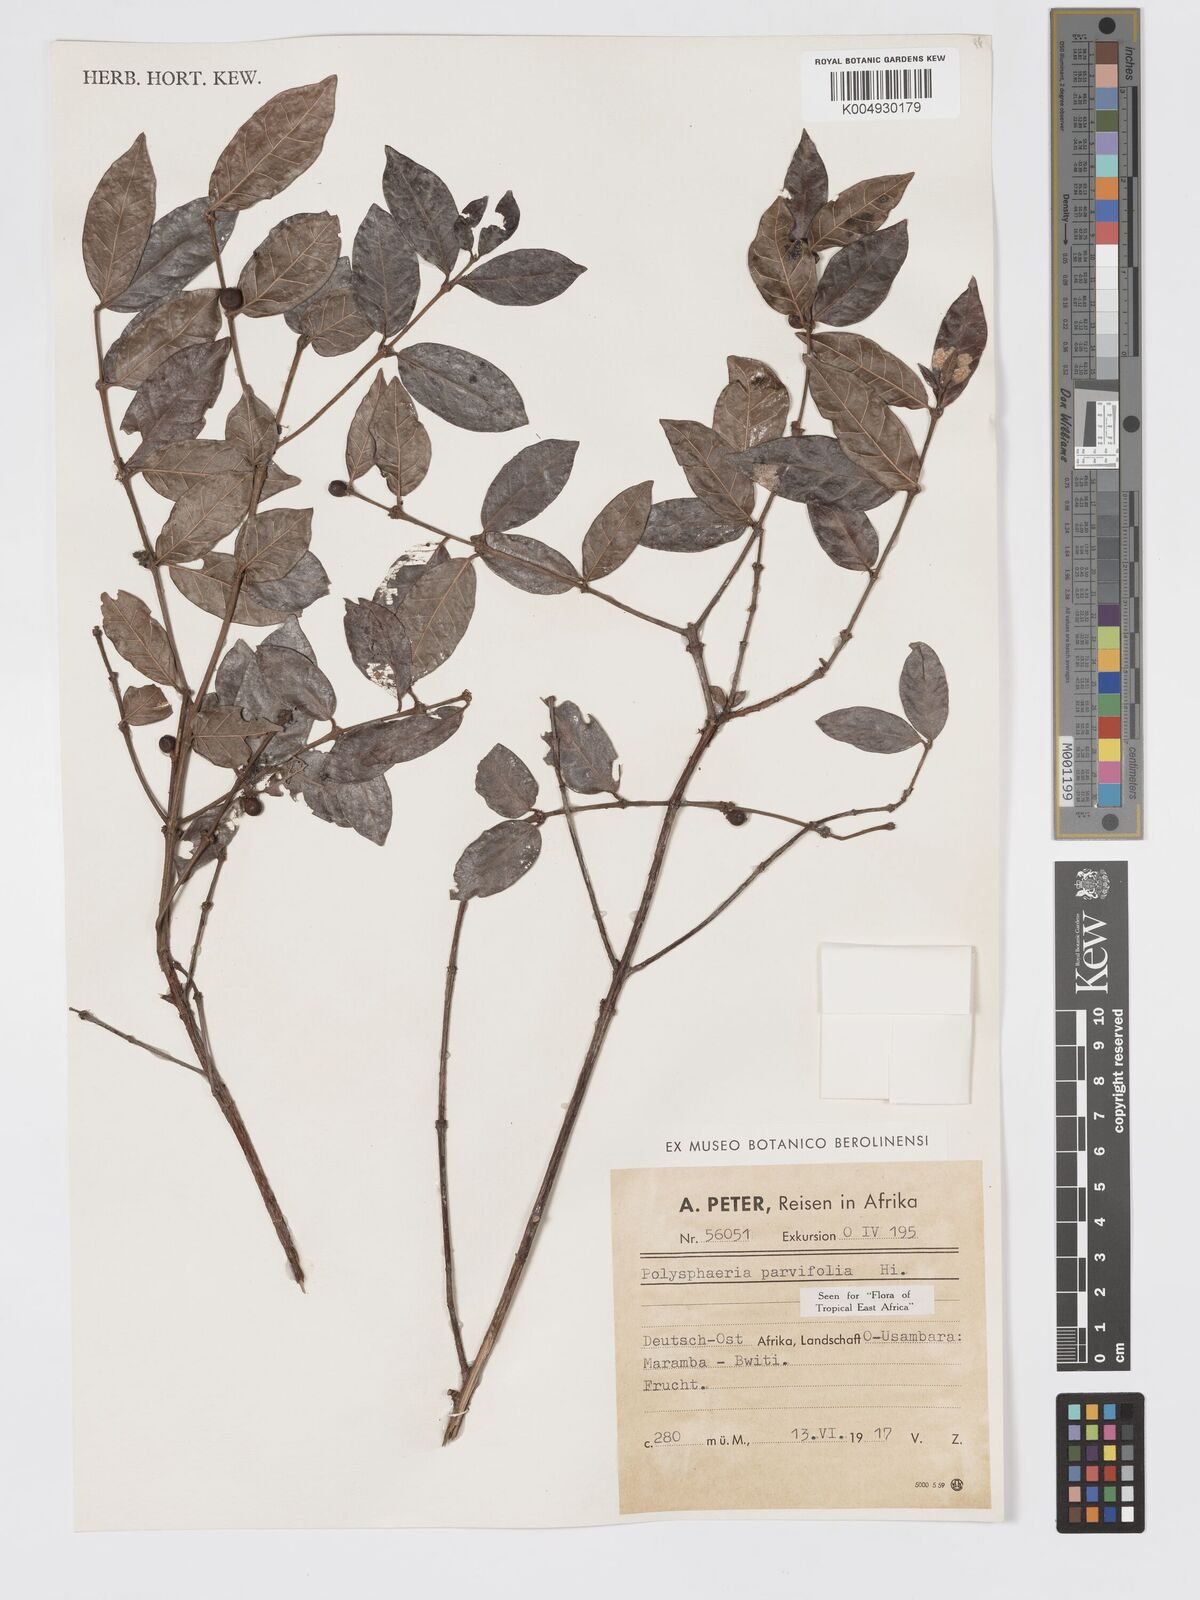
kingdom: Plantae
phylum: Tracheophyta
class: Magnoliopsida
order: Gentianales
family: Rubiaceae
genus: Polysphaeria
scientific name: Polysphaeria parvifolia
